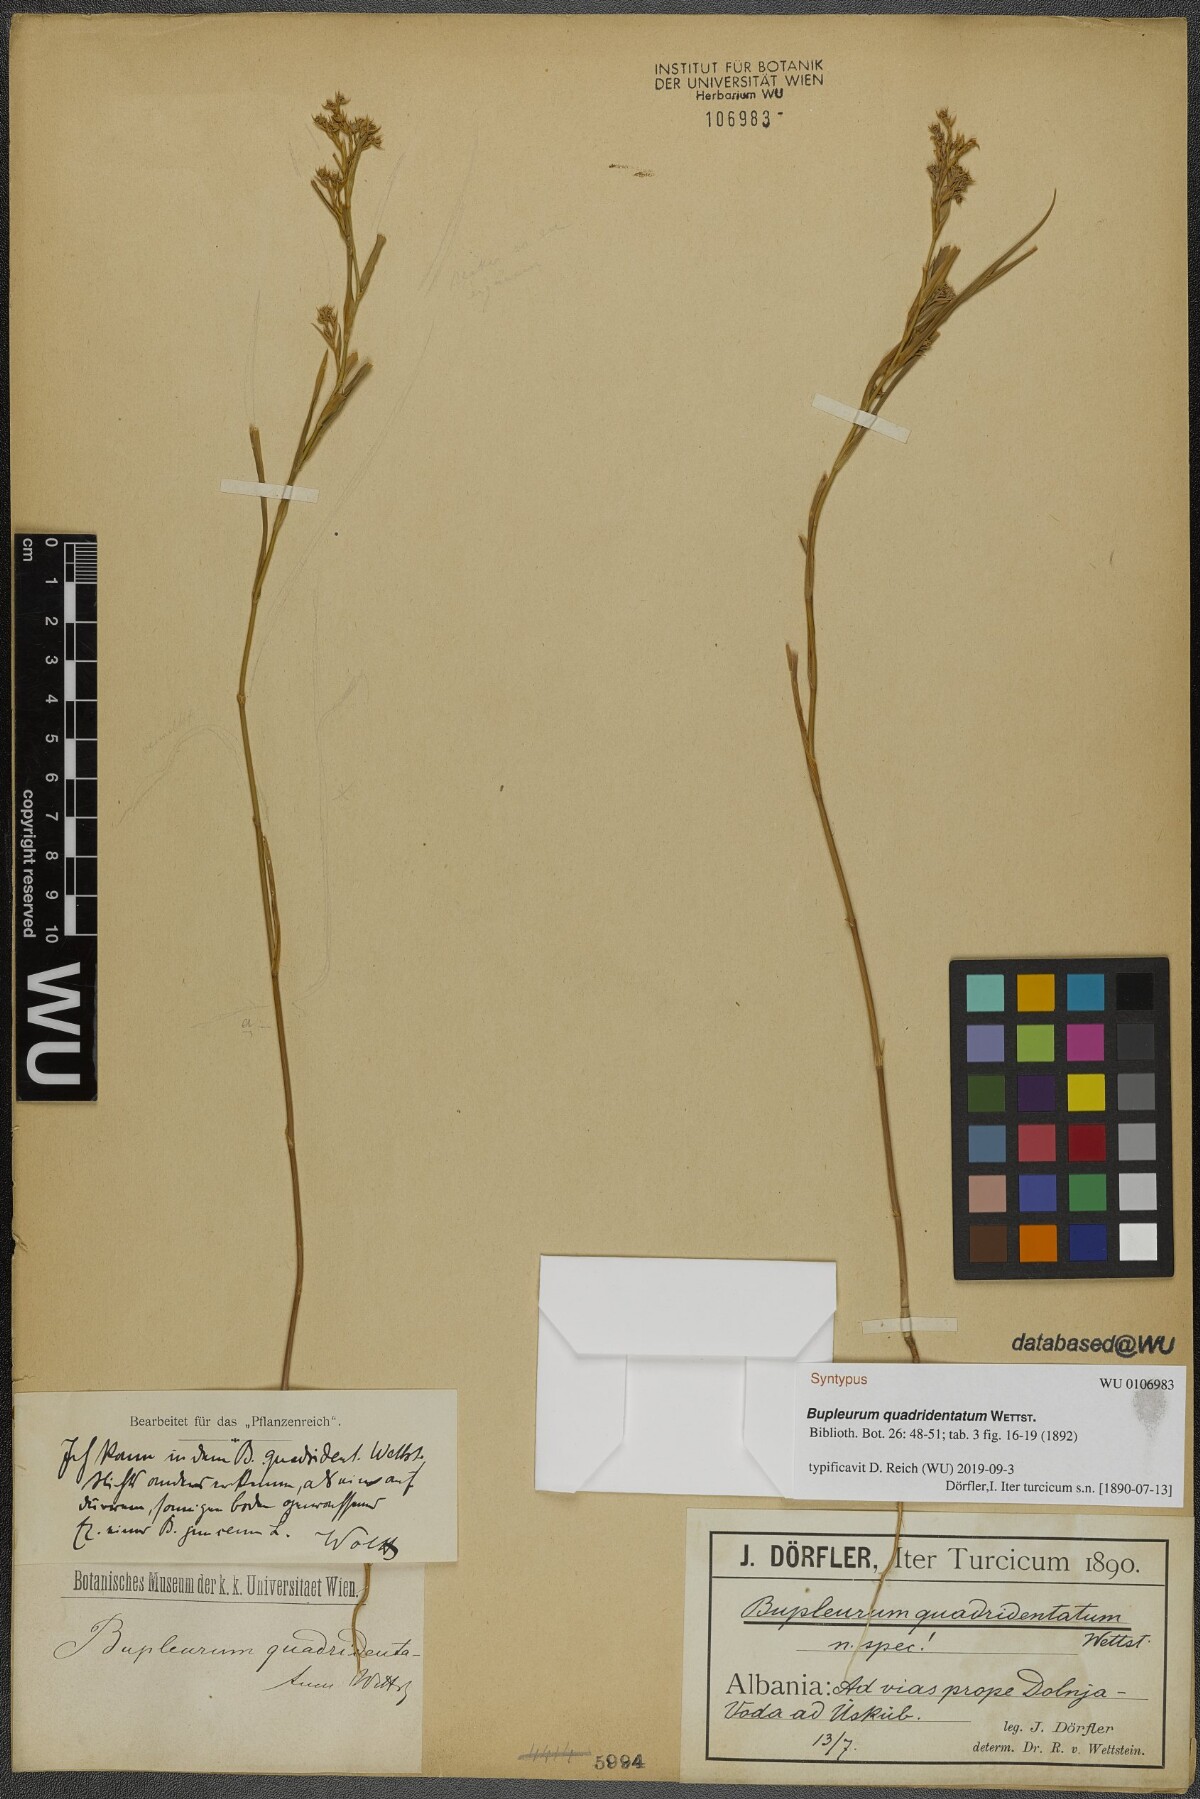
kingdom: Plantae
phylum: Tracheophyta
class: Magnoliopsida
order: Apiales
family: Apiaceae
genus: Bupleurum
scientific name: Bupleurum praealtum
